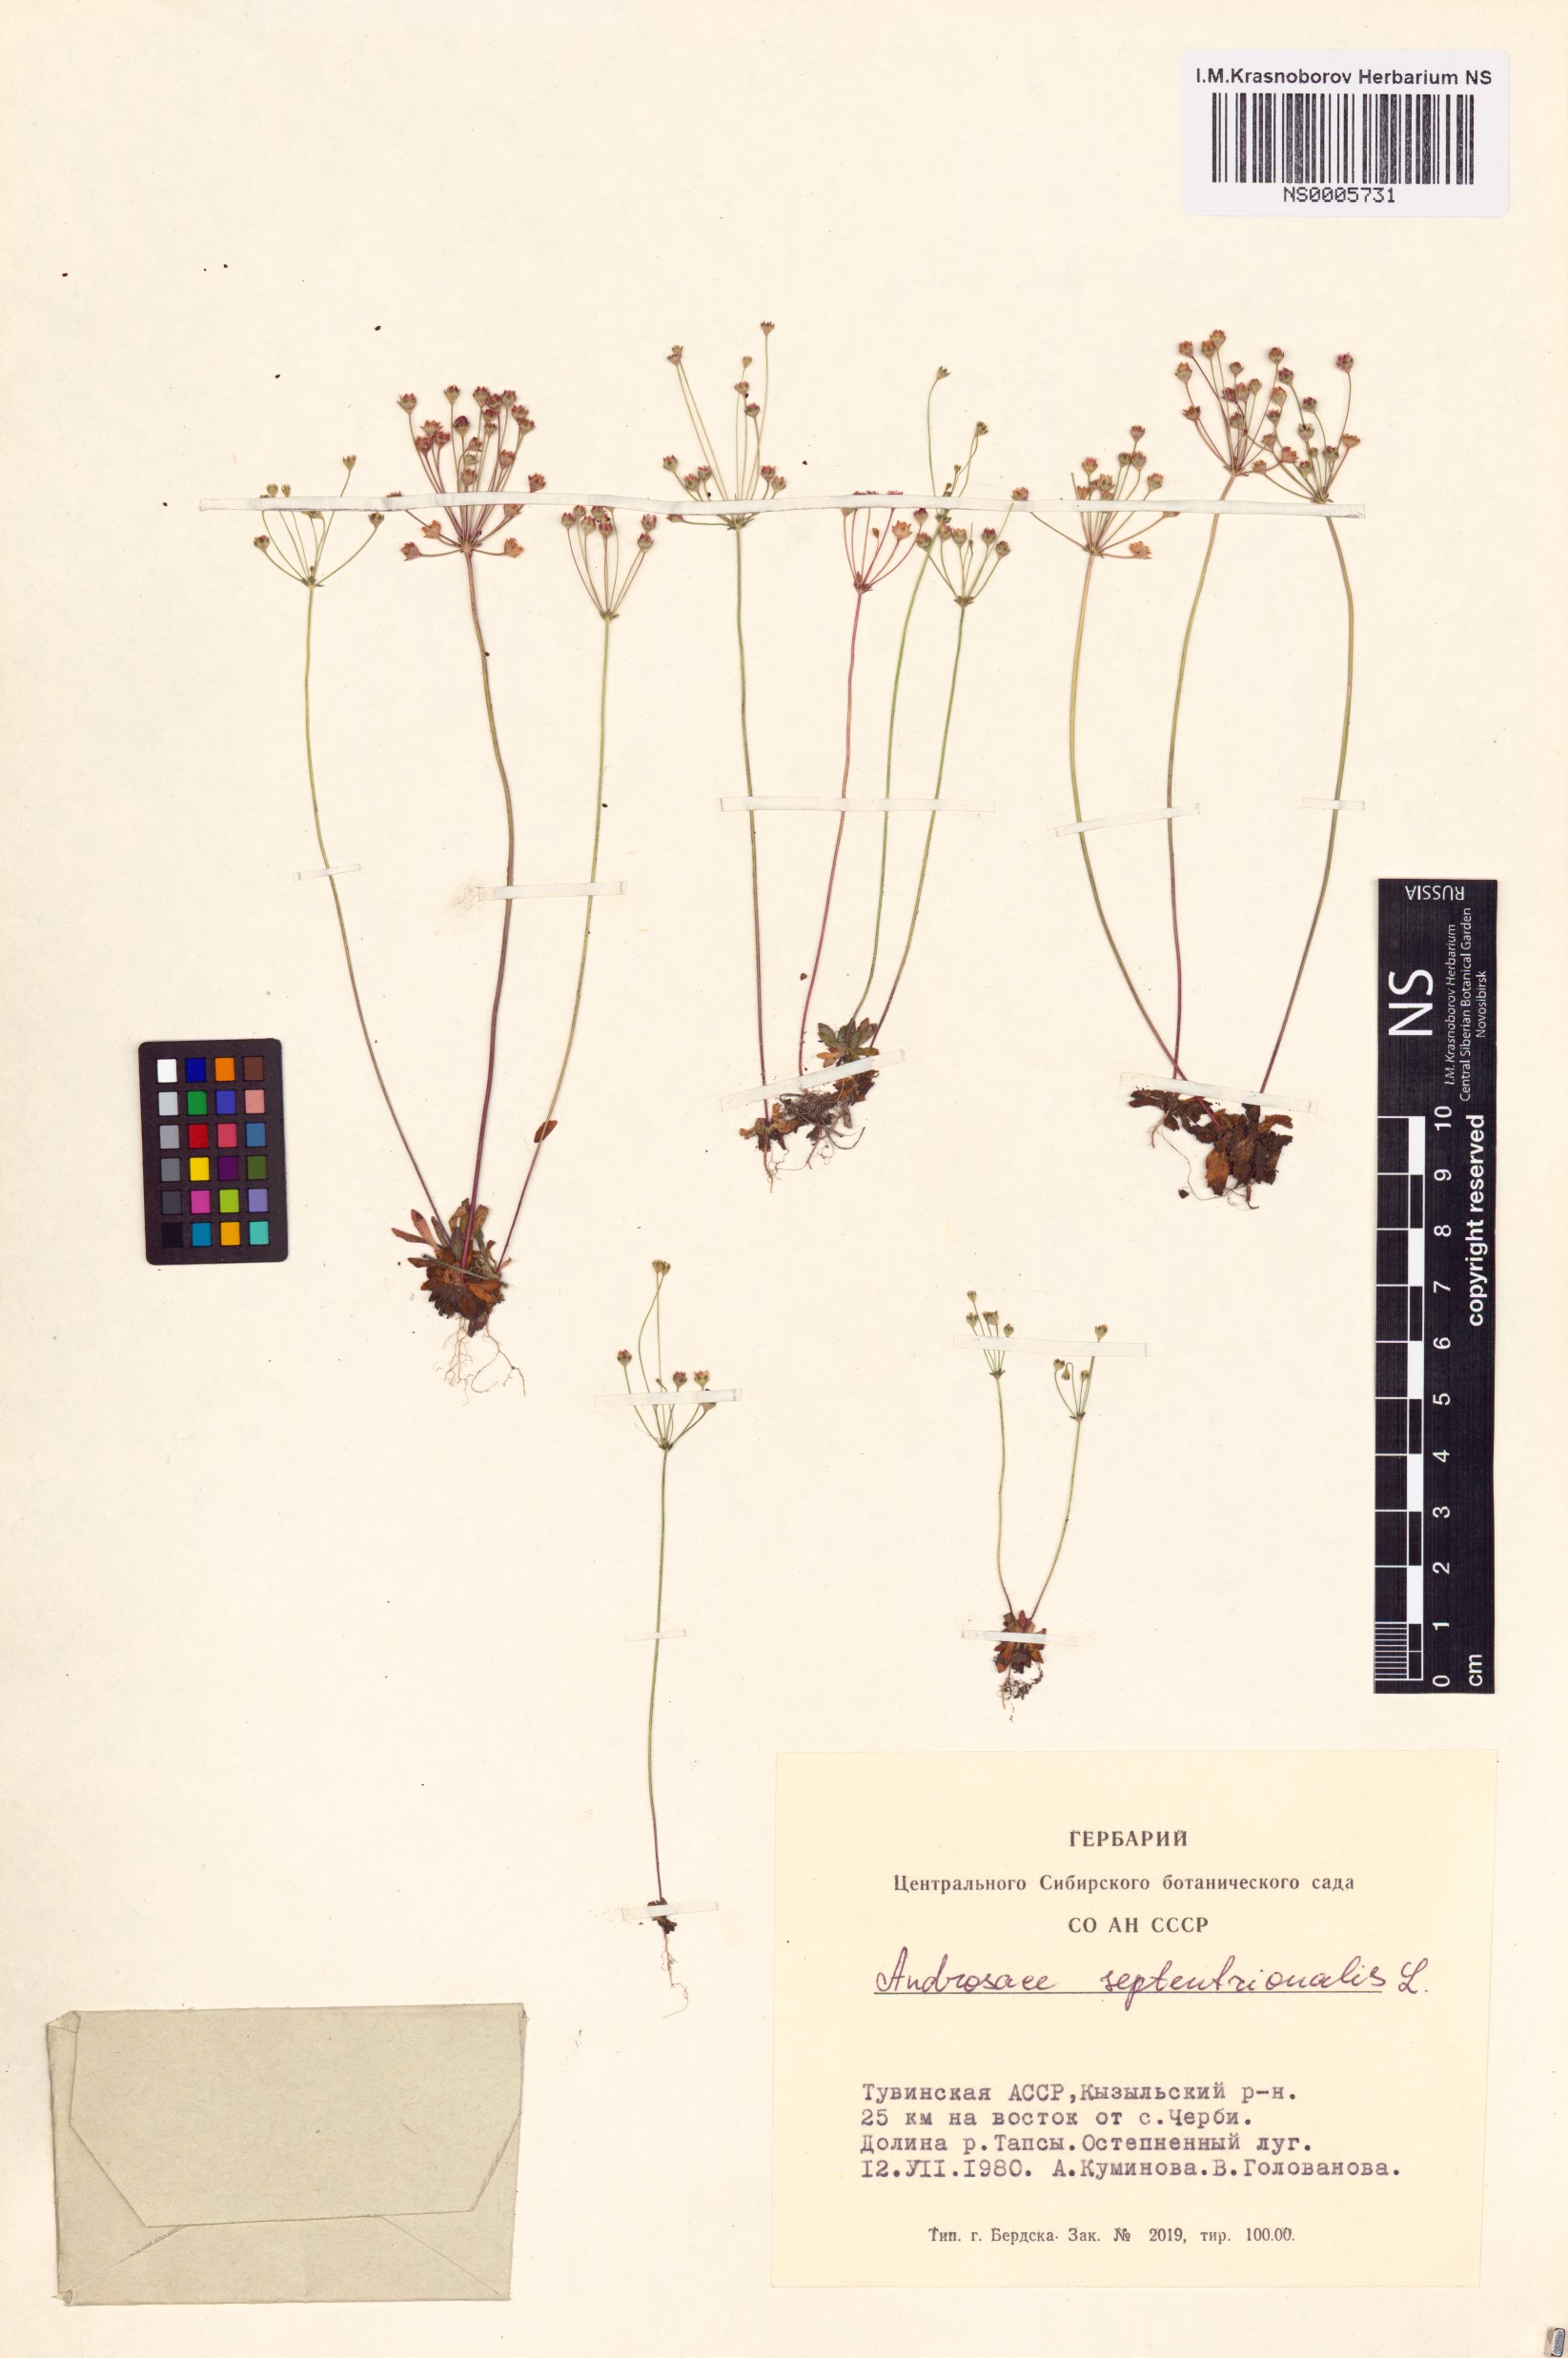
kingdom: Plantae
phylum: Tracheophyta
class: Magnoliopsida
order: Ericales
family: Primulaceae
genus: Androsace
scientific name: Androsace septentrionalis
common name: Hairy northern fairy-candelabra
